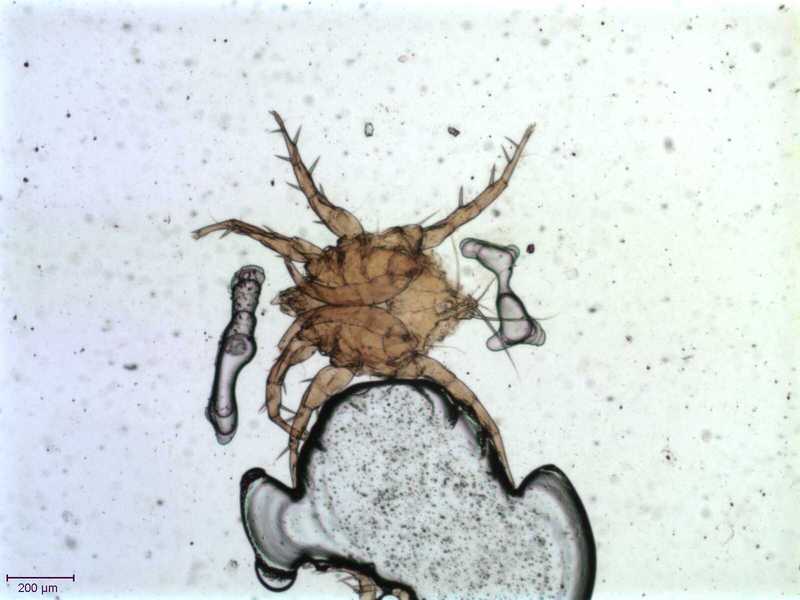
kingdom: Animalia
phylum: Arthropoda
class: Arachnida
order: Sarcoptiformes
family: Algophagidae
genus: Hericia
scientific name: Hericia fermentationis
